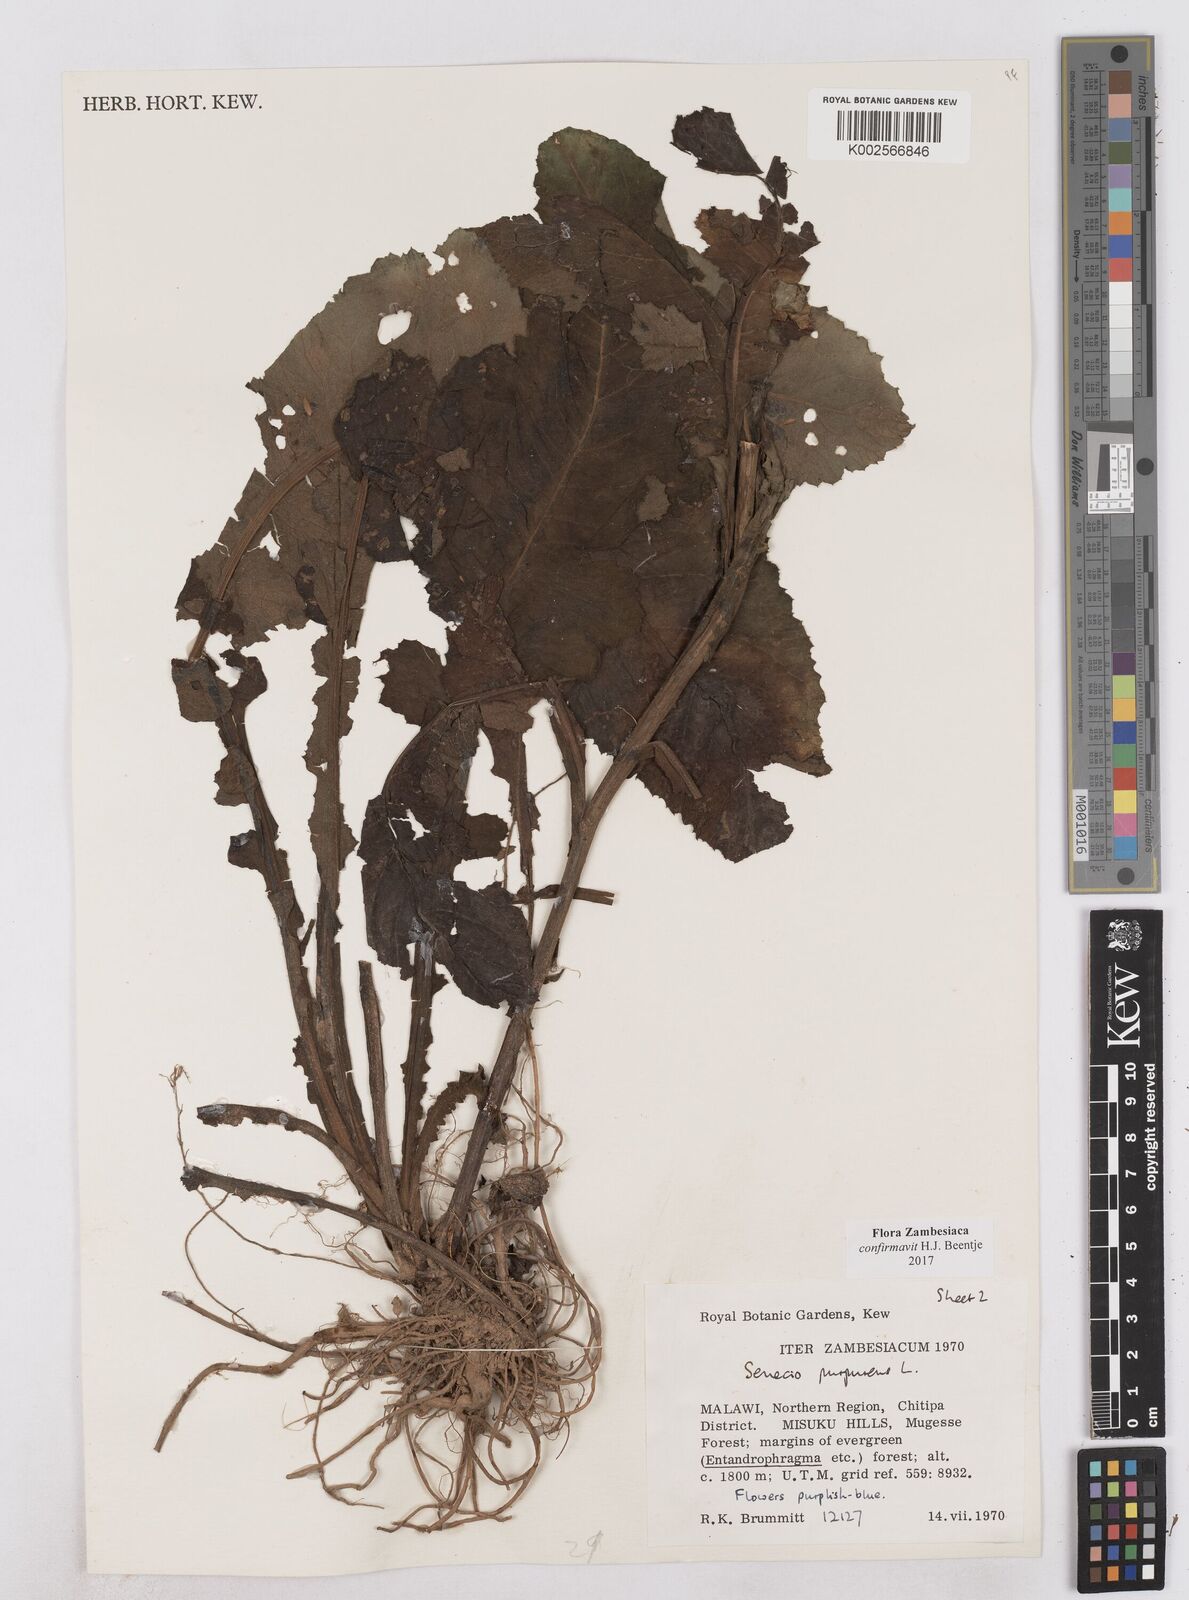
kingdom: Plantae
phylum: Tracheophyta
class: Magnoliopsida
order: Asterales
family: Asteraceae
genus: Senecio
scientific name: Senecio purpureus
